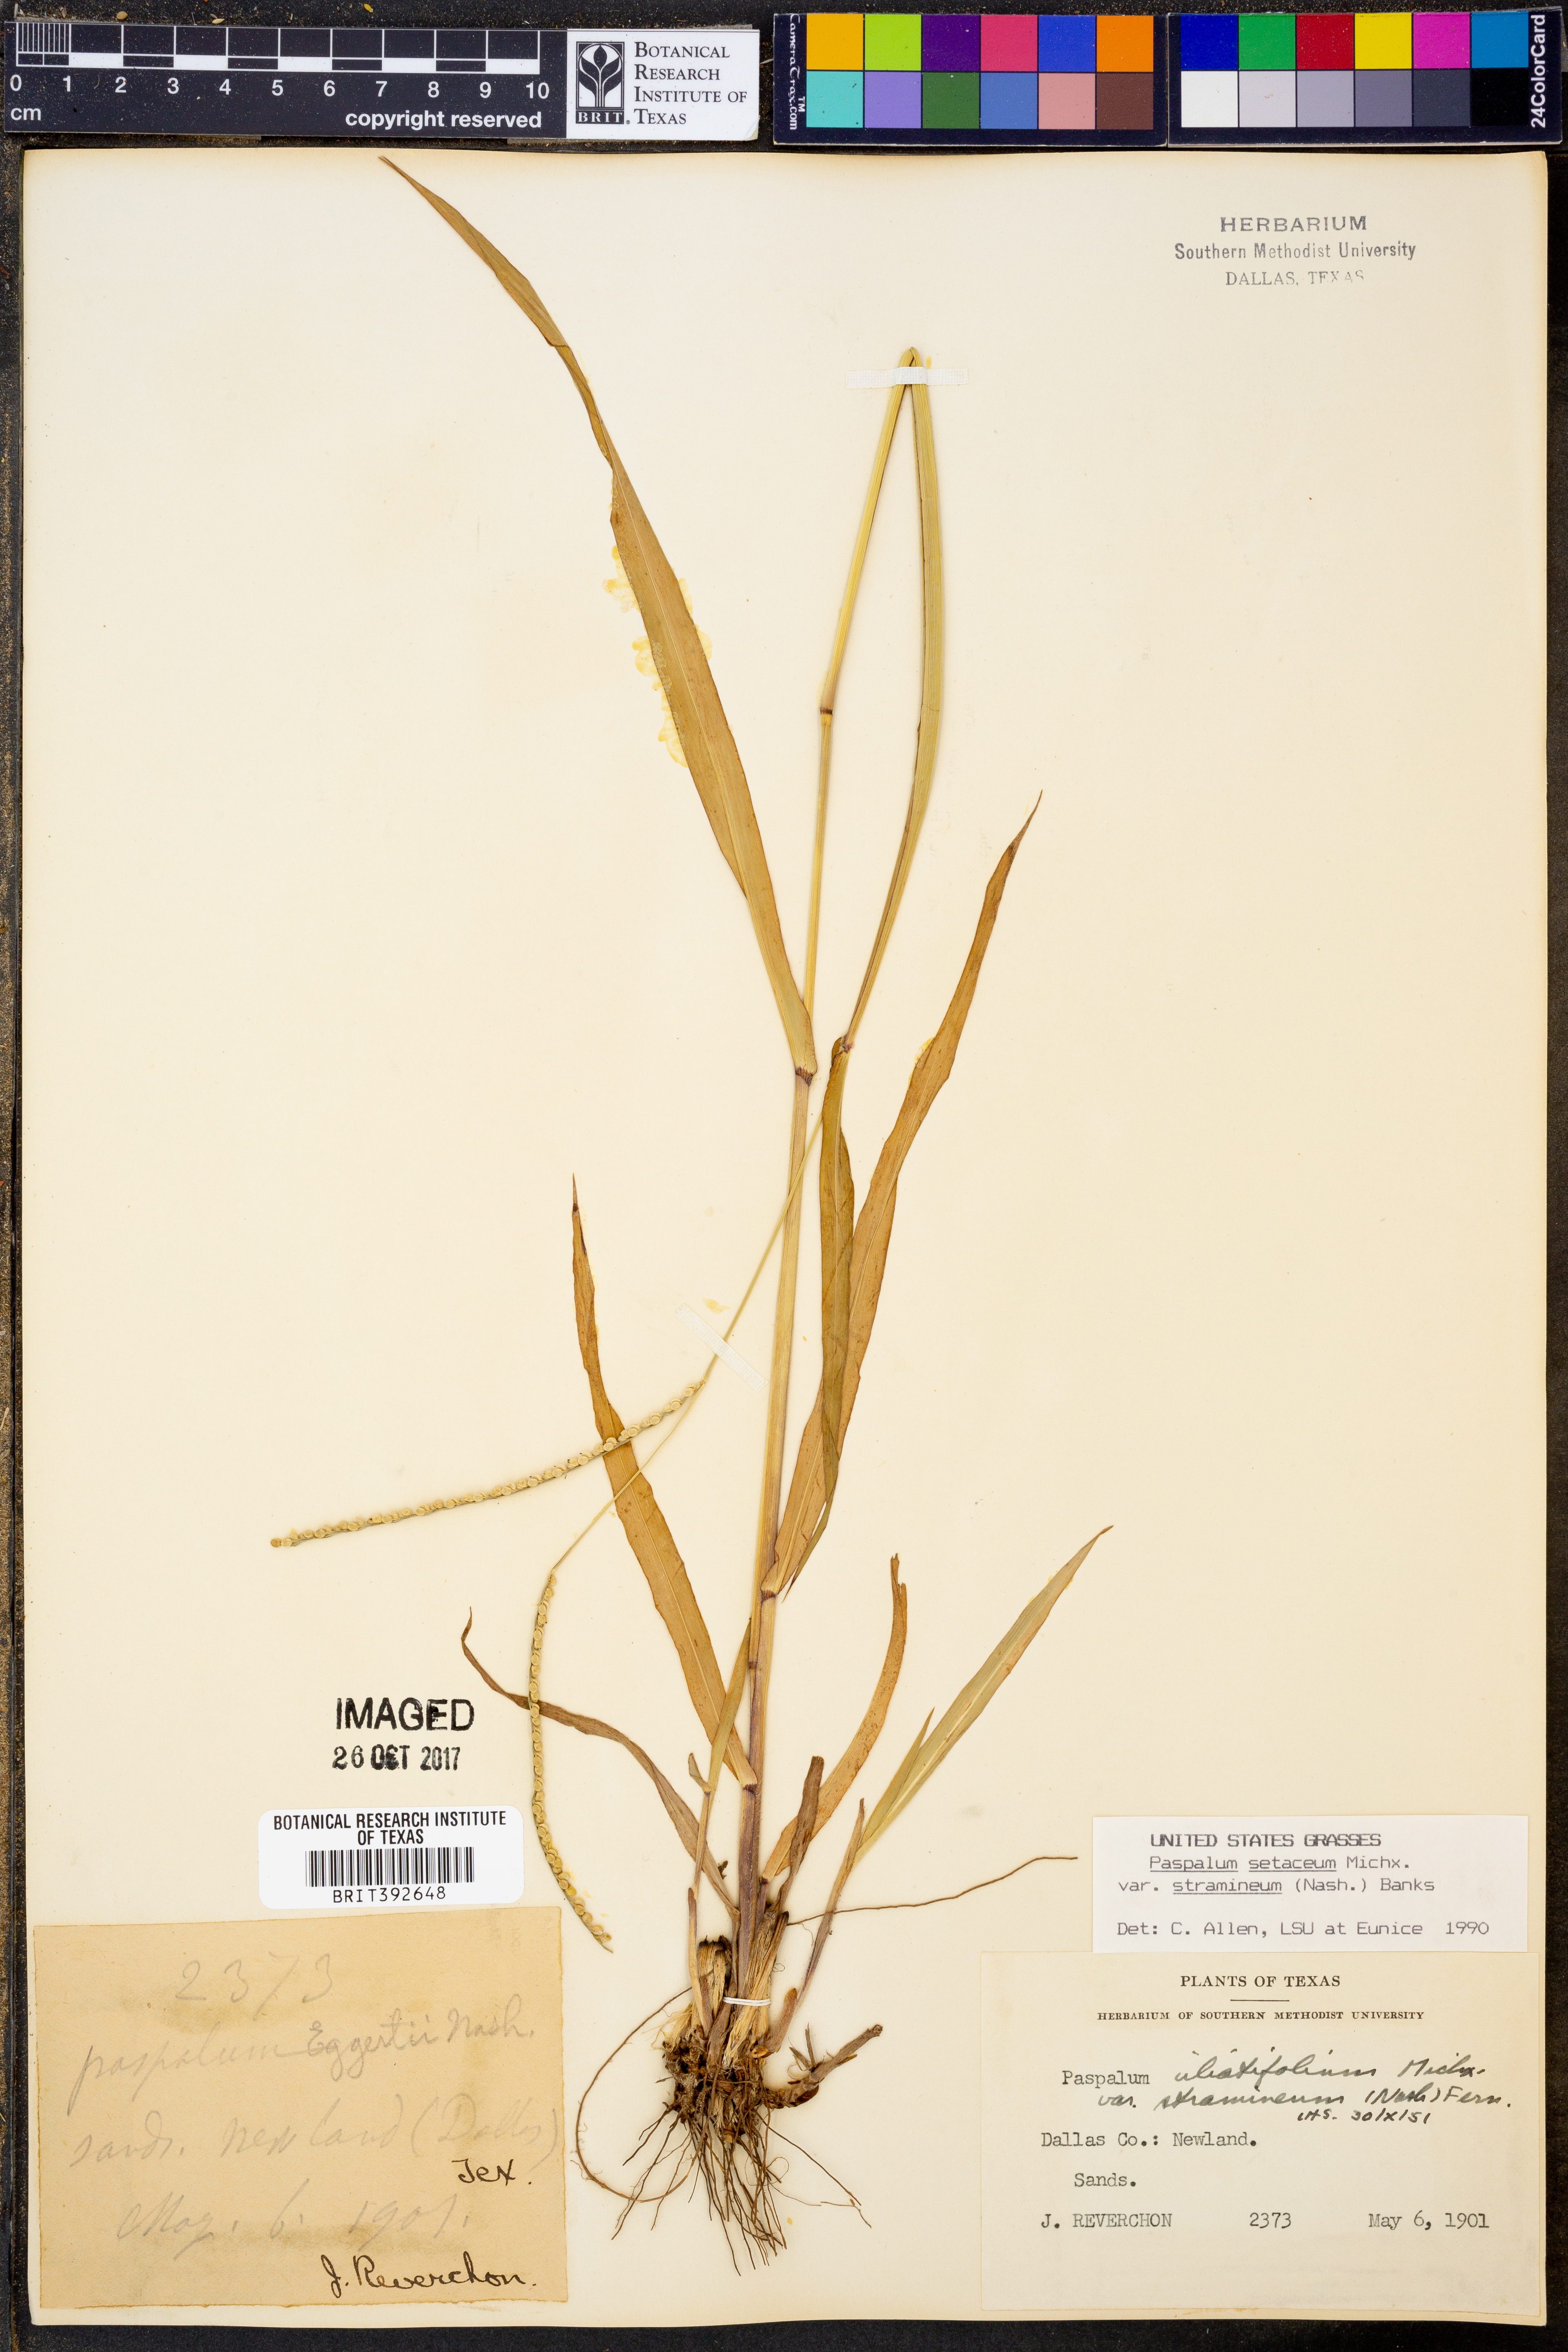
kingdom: Plantae
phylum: Tracheophyta
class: Liliopsida
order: Poales
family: Poaceae
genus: Paspalum
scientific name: Paspalum setaceum
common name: Slender paspalum
